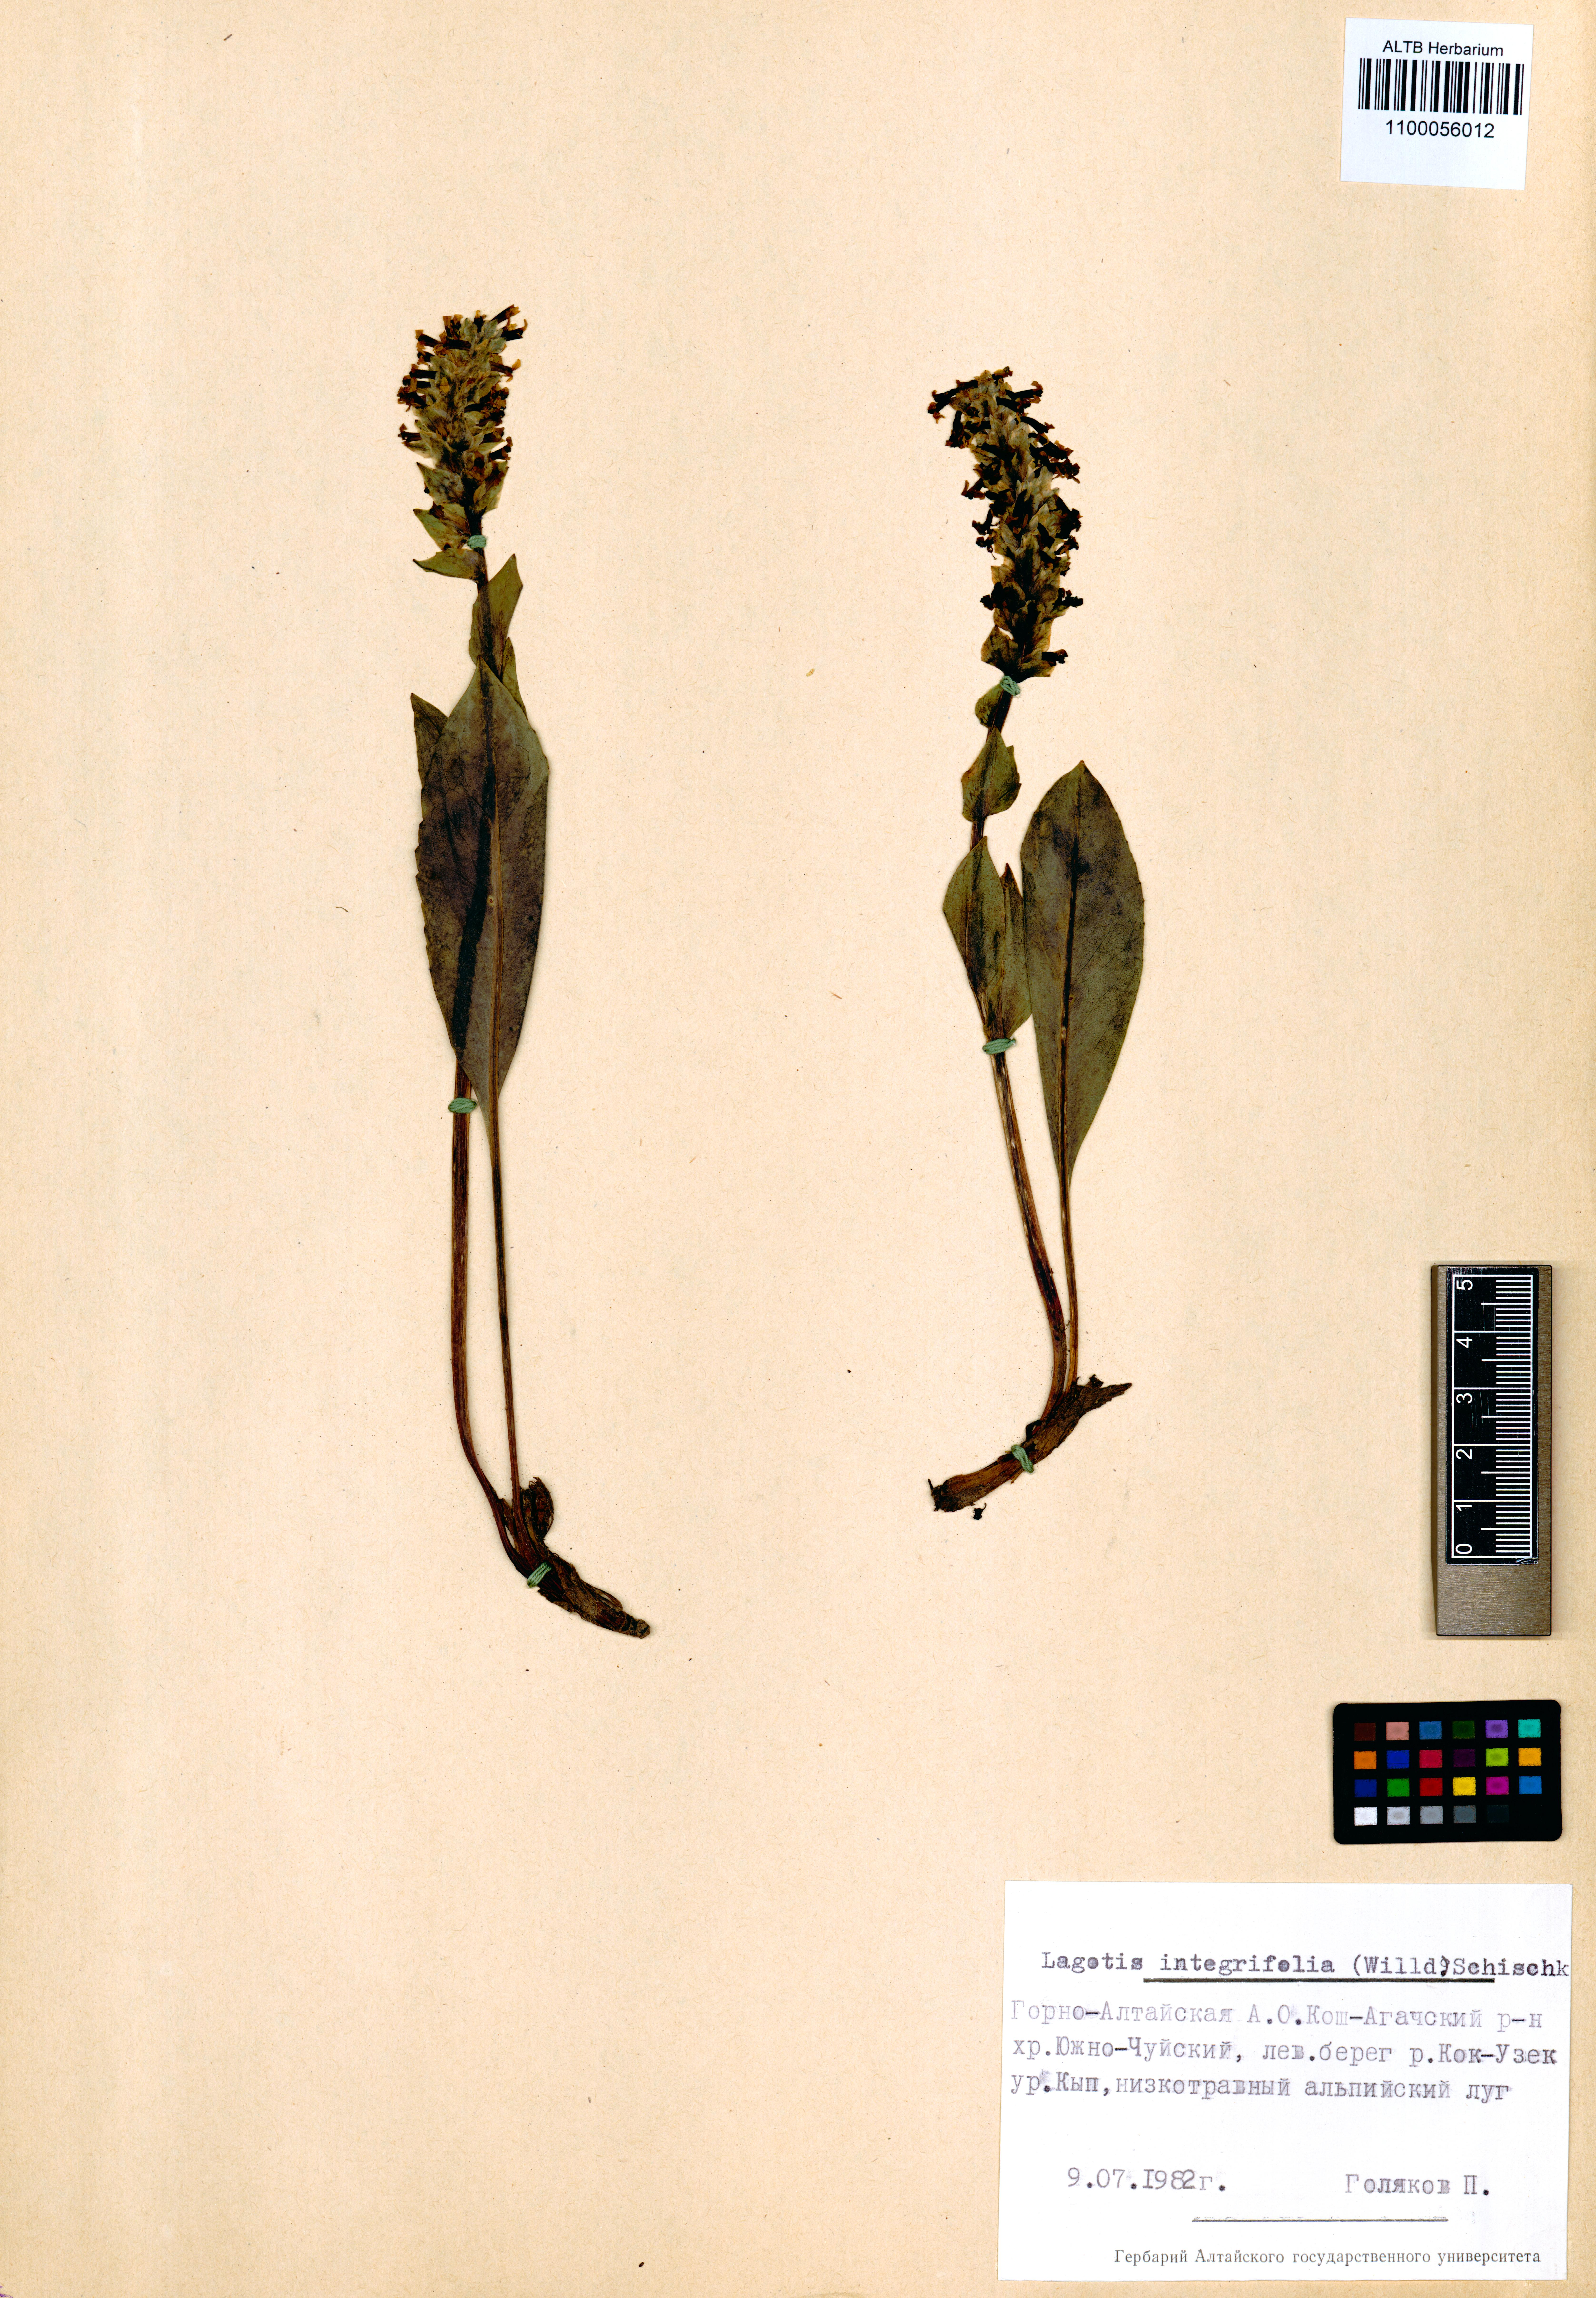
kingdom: Plantae
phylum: Tracheophyta
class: Magnoliopsida
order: Lamiales
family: Plantaginaceae
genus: Lagotis
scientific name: Lagotis integrifolia
